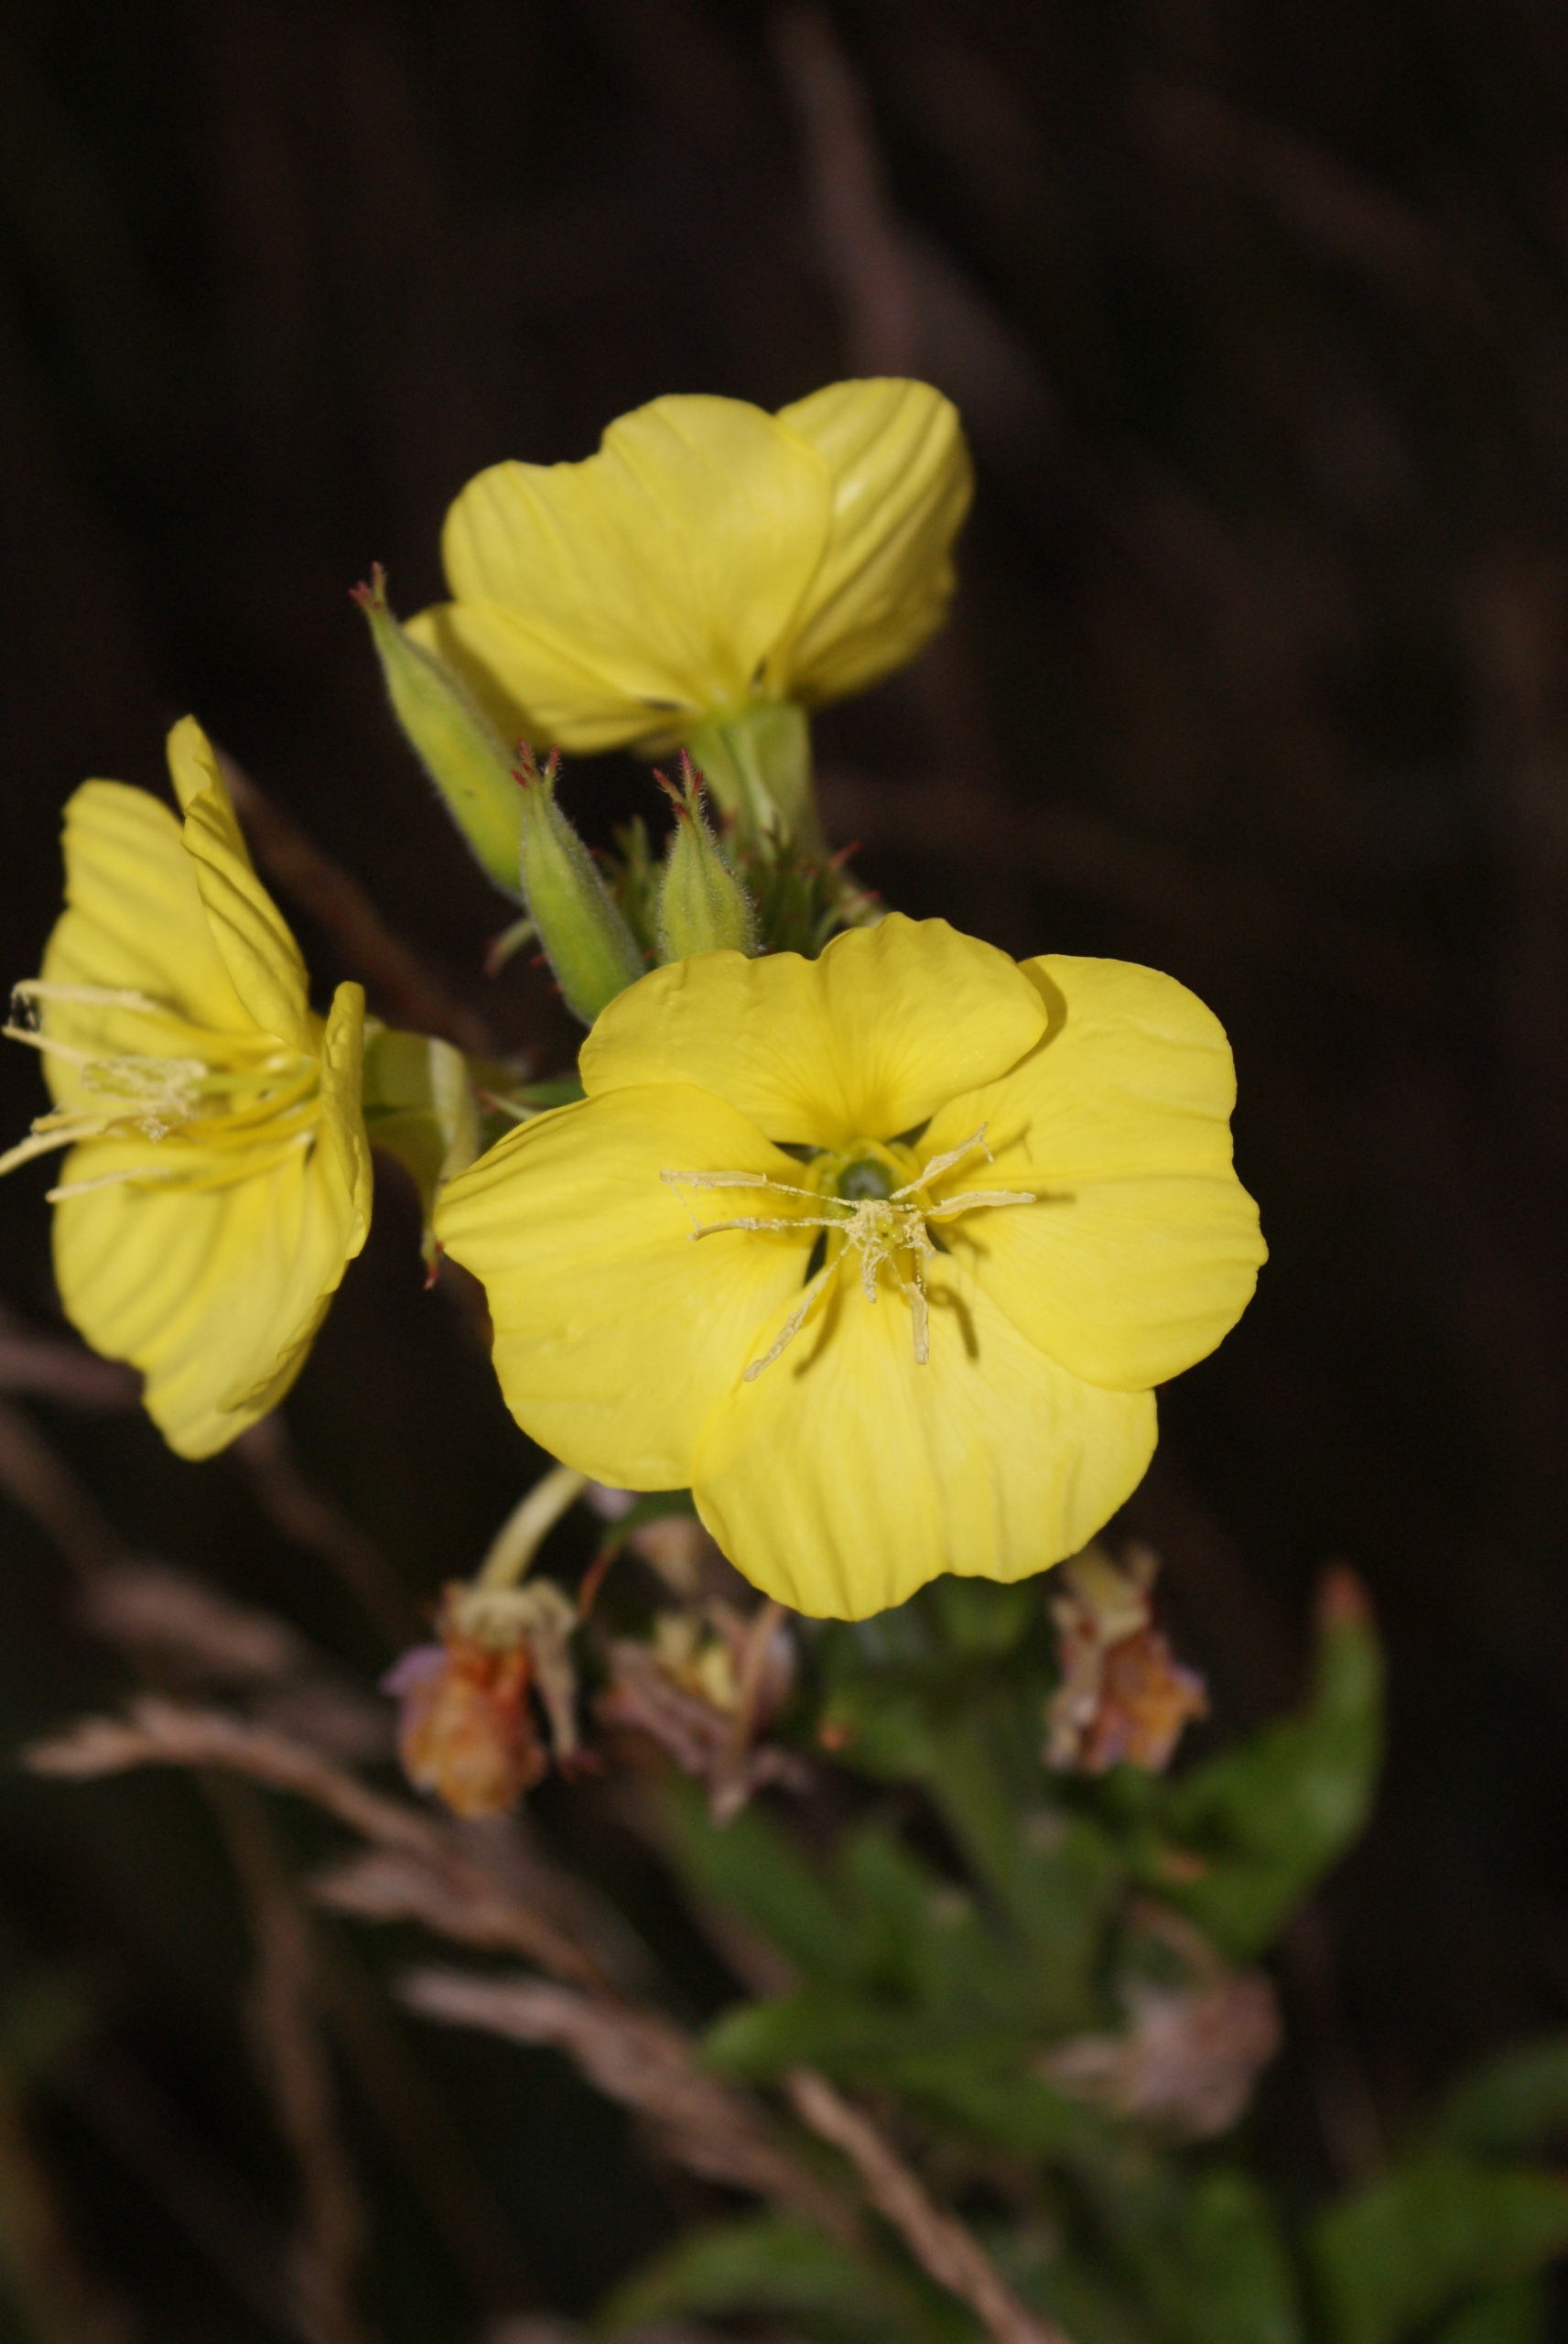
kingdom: Plantae
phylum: Tracheophyta
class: Magnoliopsida
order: Myrtales
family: Onagraceae
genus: Oenothera
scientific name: Oenothera biennis
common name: Toårig natlys
